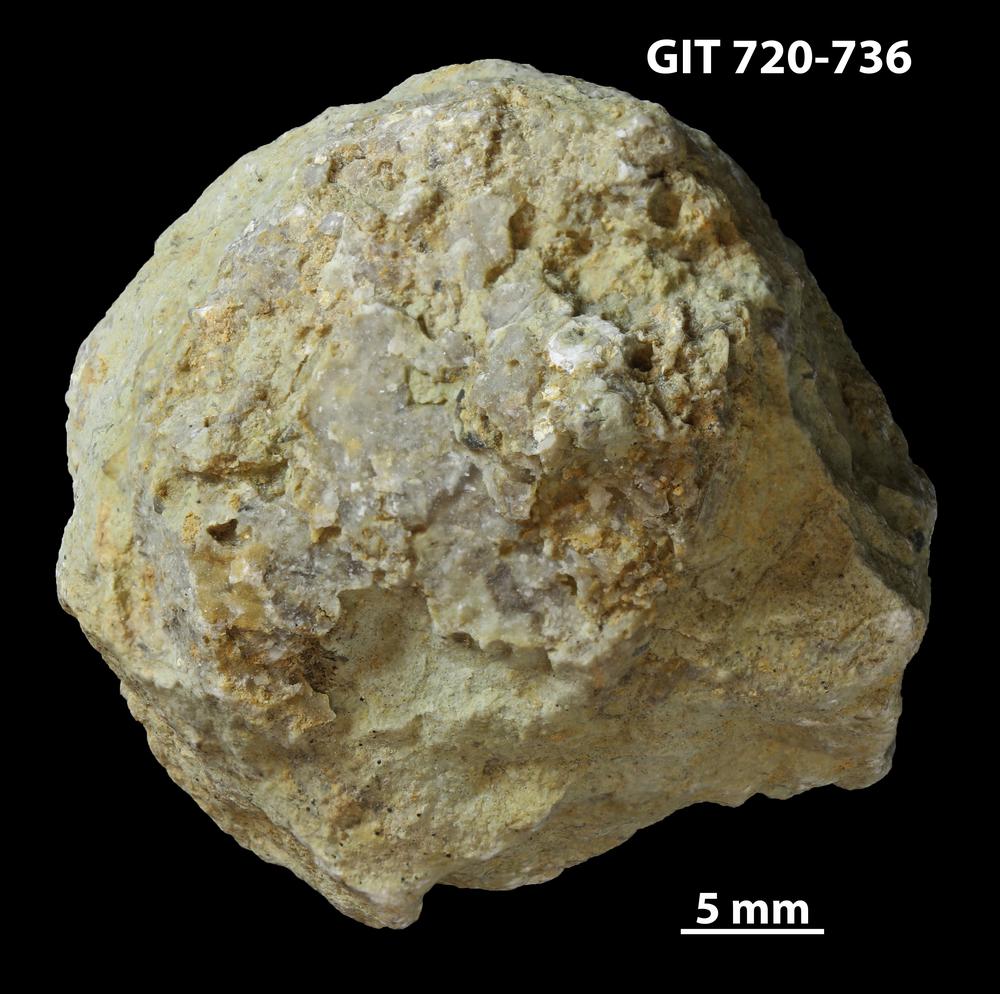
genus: Amphorichnus
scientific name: Amphorichnus
